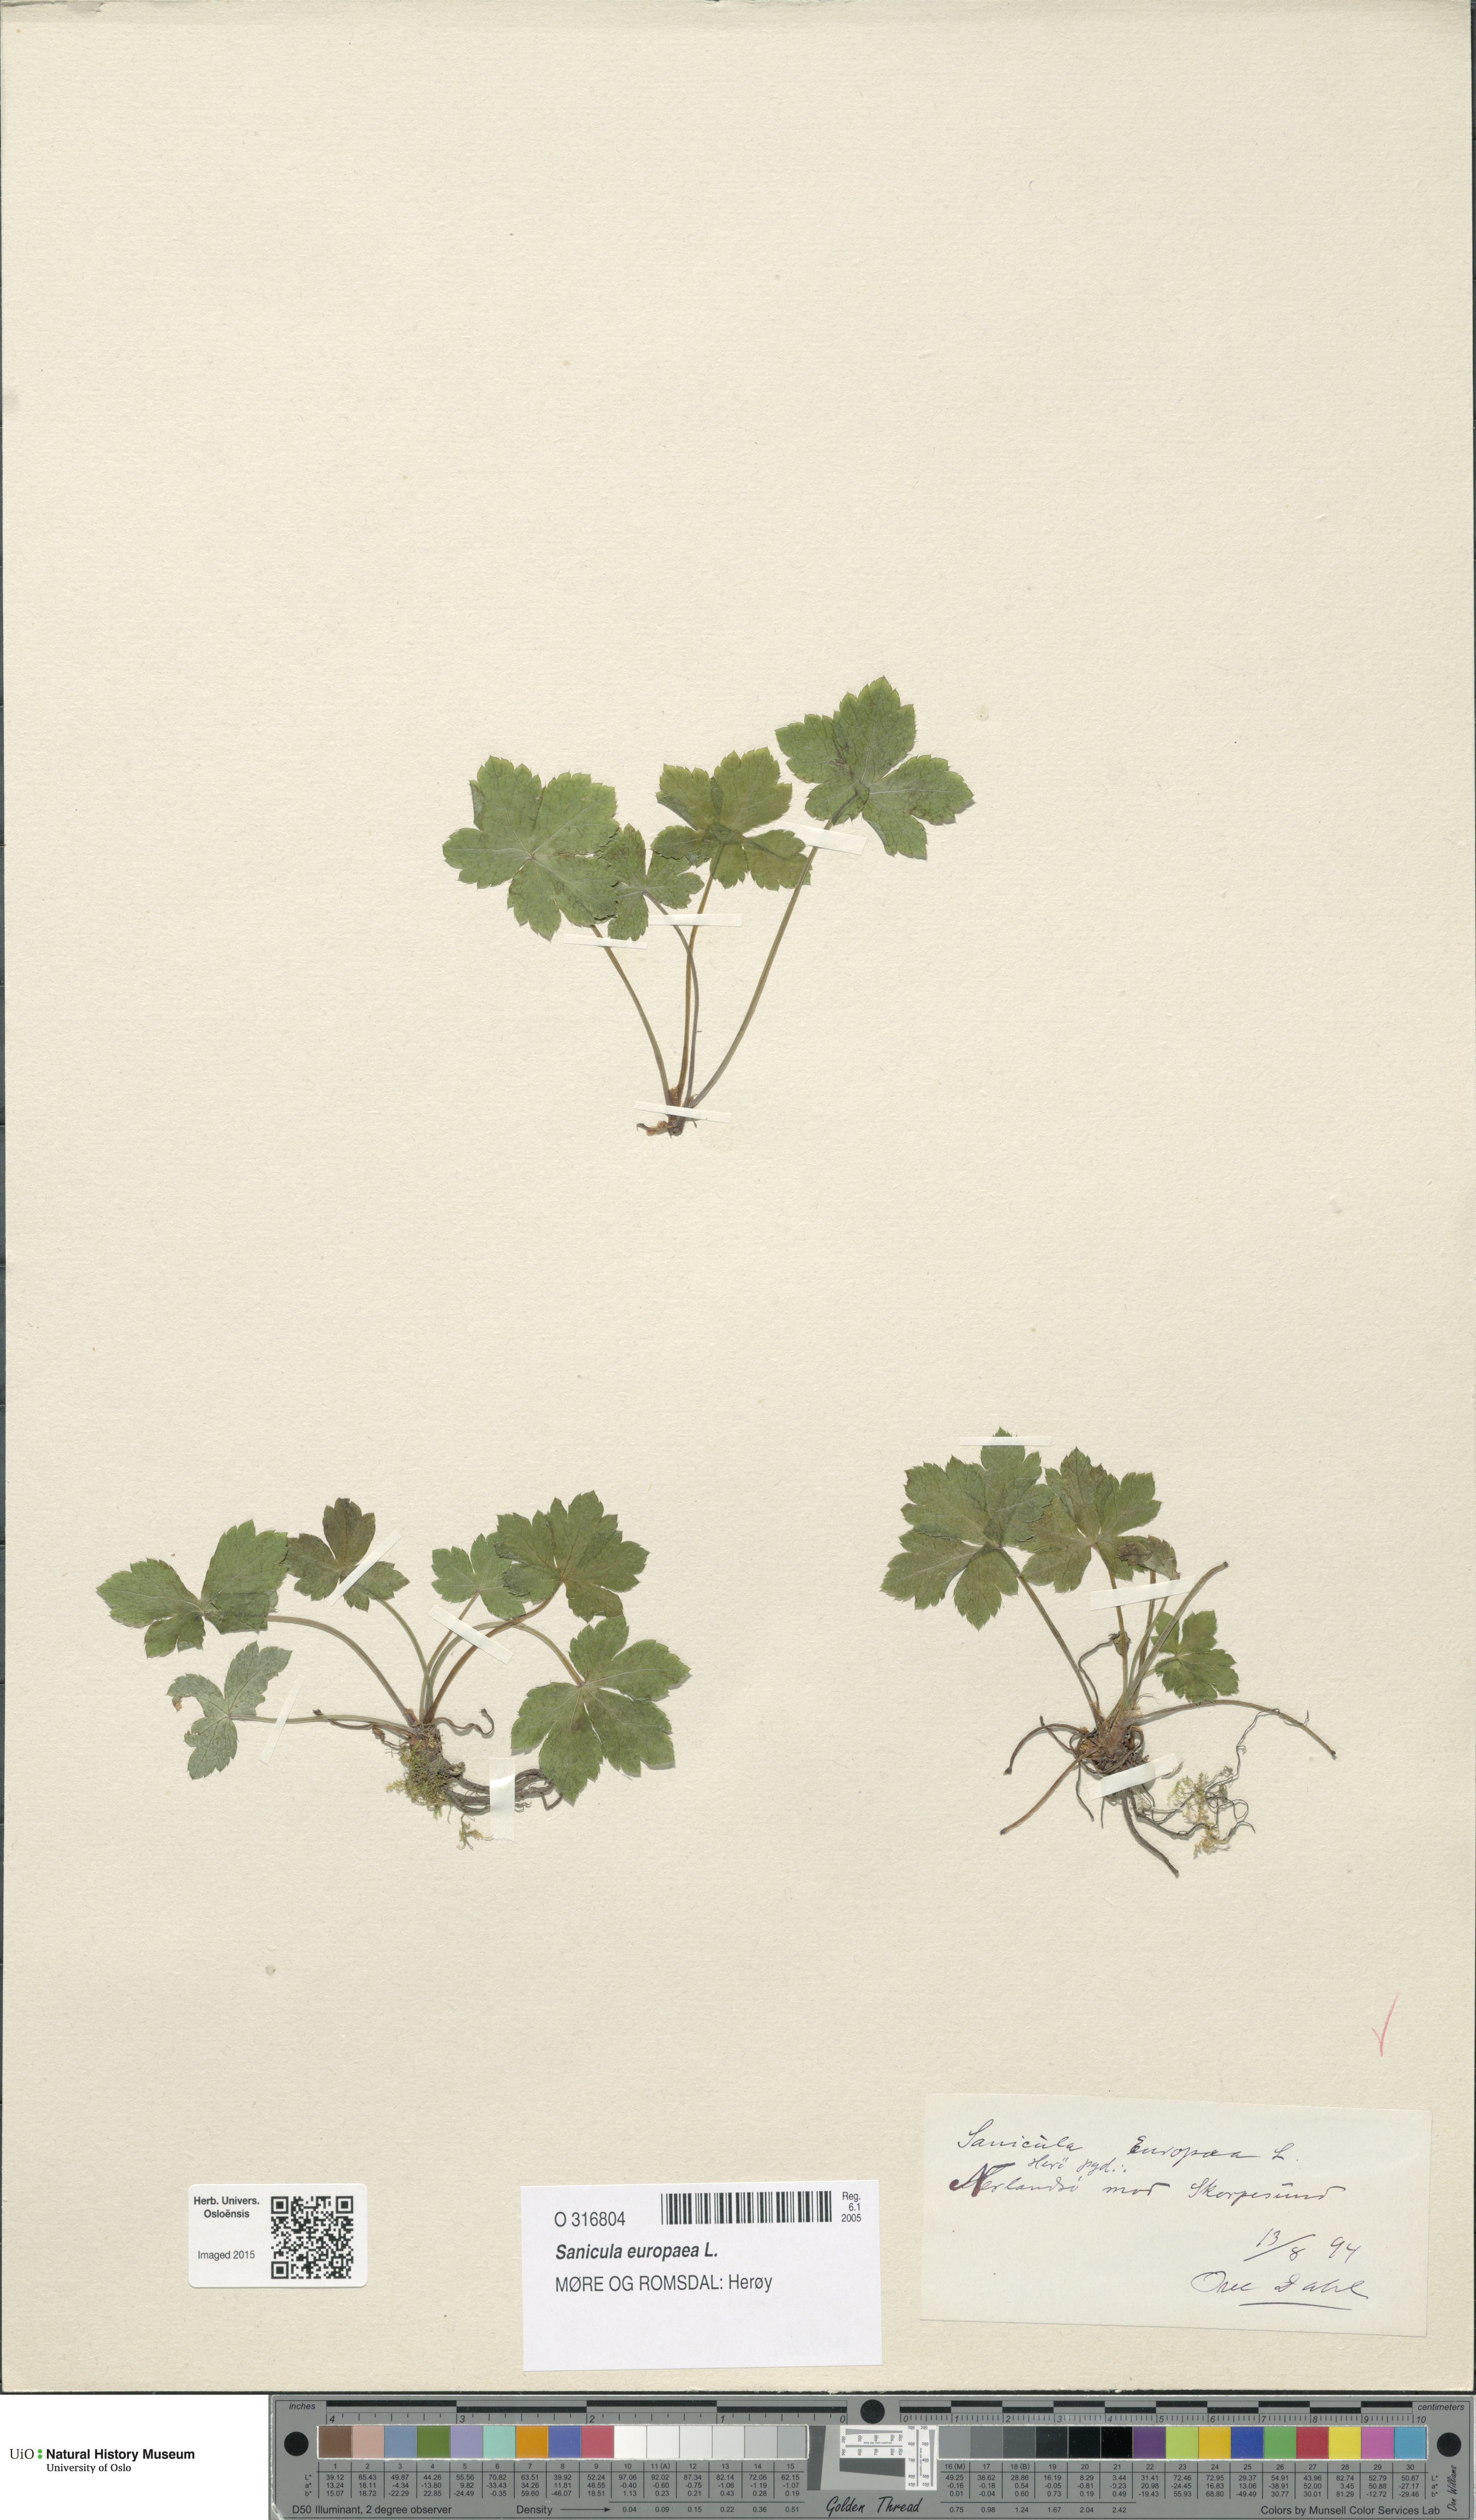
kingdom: Plantae
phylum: Tracheophyta
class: Magnoliopsida
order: Apiales
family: Apiaceae
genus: Sanicula
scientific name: Sanicula europaea
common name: Sanicle
